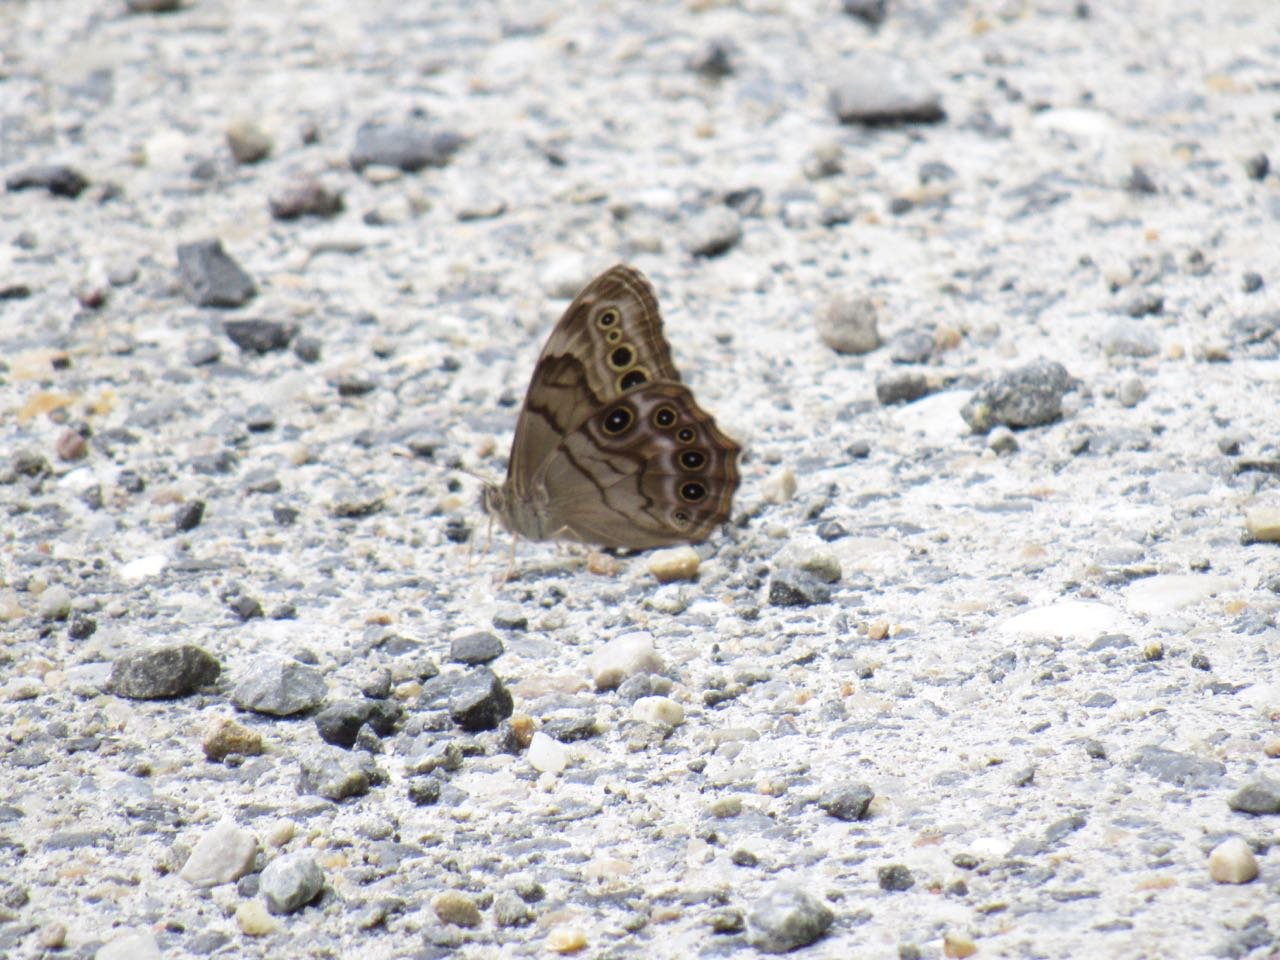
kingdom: Animalia
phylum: Arthropoda
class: Insecta
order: Lepidoptera
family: Nymphalidae
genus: Lethe
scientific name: Lethe anthedon
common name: Northern Pearly-Eye
